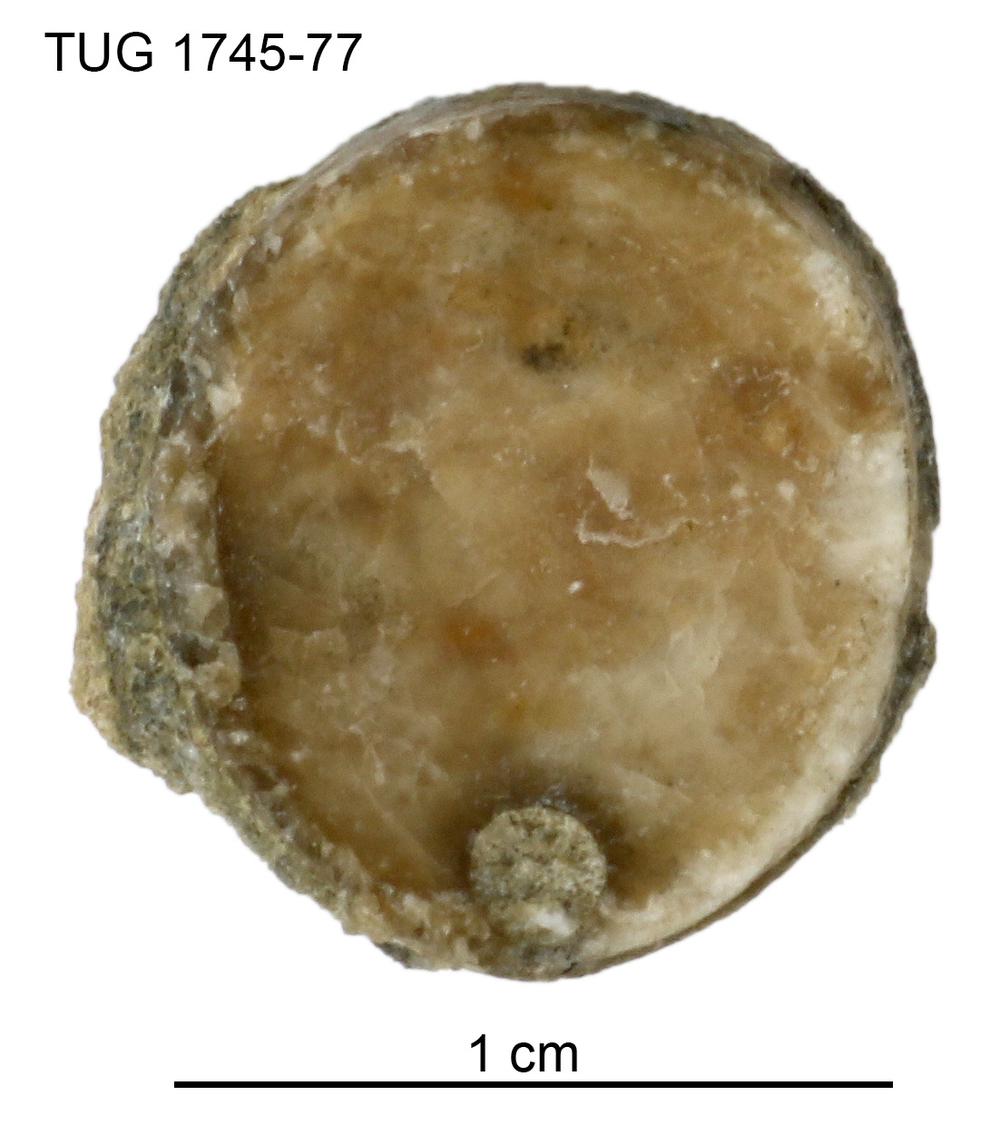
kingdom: Animalia
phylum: Mollusca
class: Cephalopoda
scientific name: Cephalopoda
